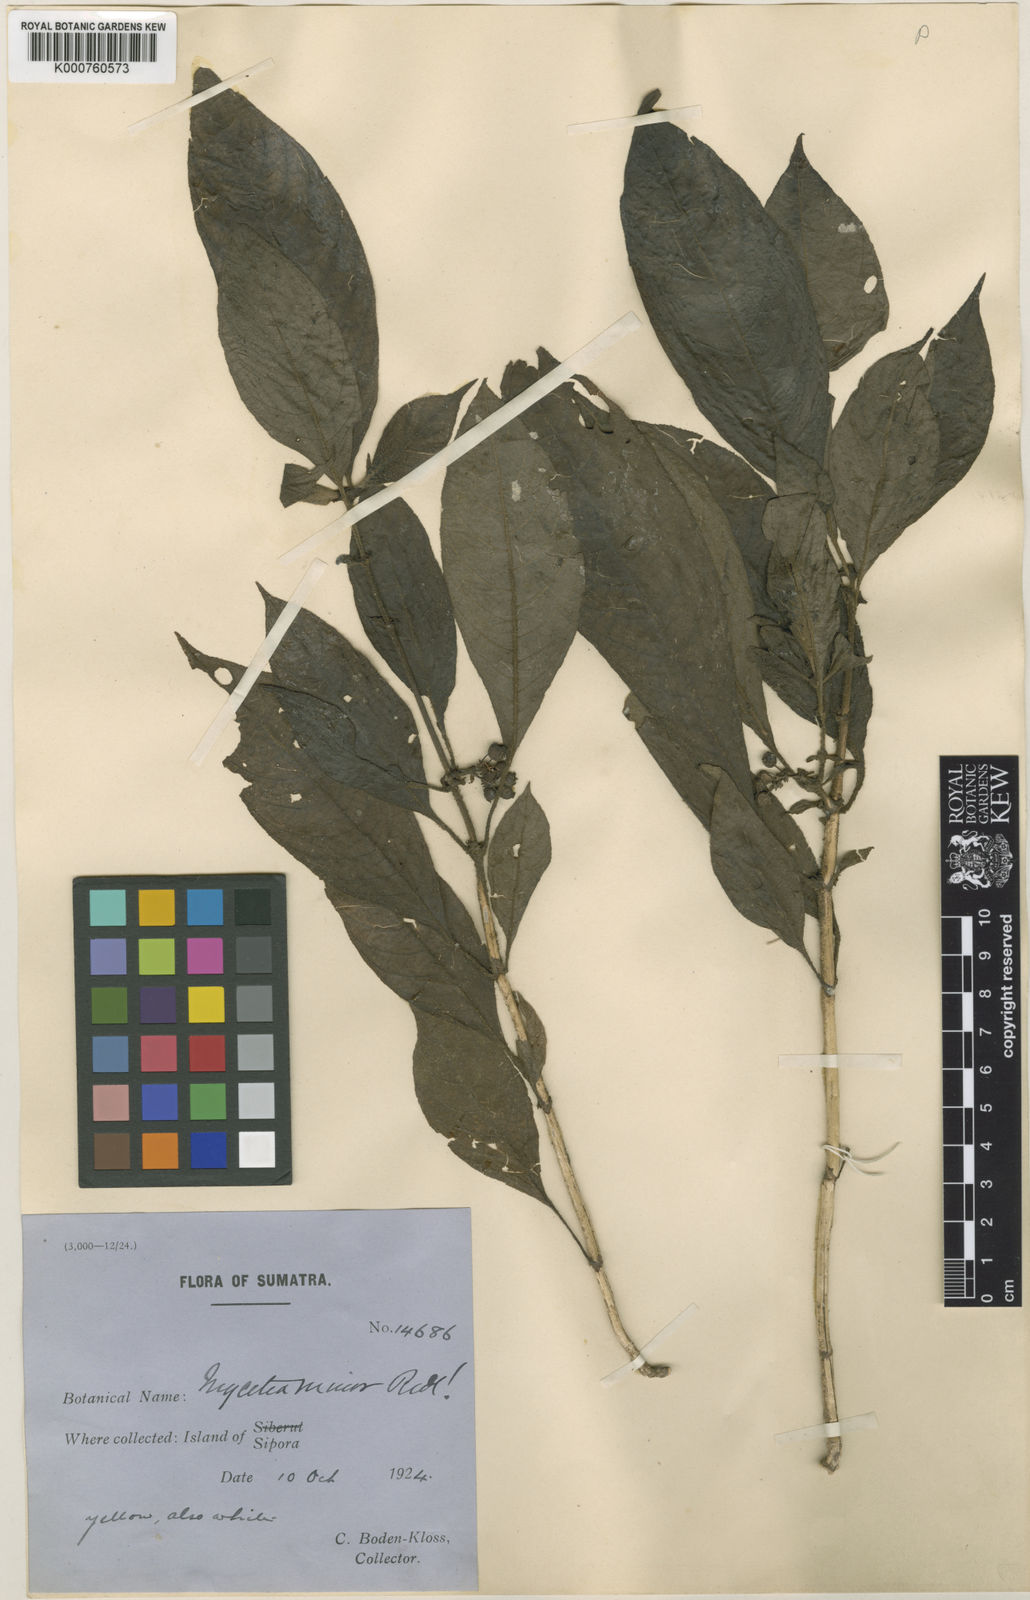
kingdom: Plantae
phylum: Tracheophyta
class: Magnoliopsida
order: Gentianales
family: Rubiaceae
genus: Mycetia
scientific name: Mycetia minor
